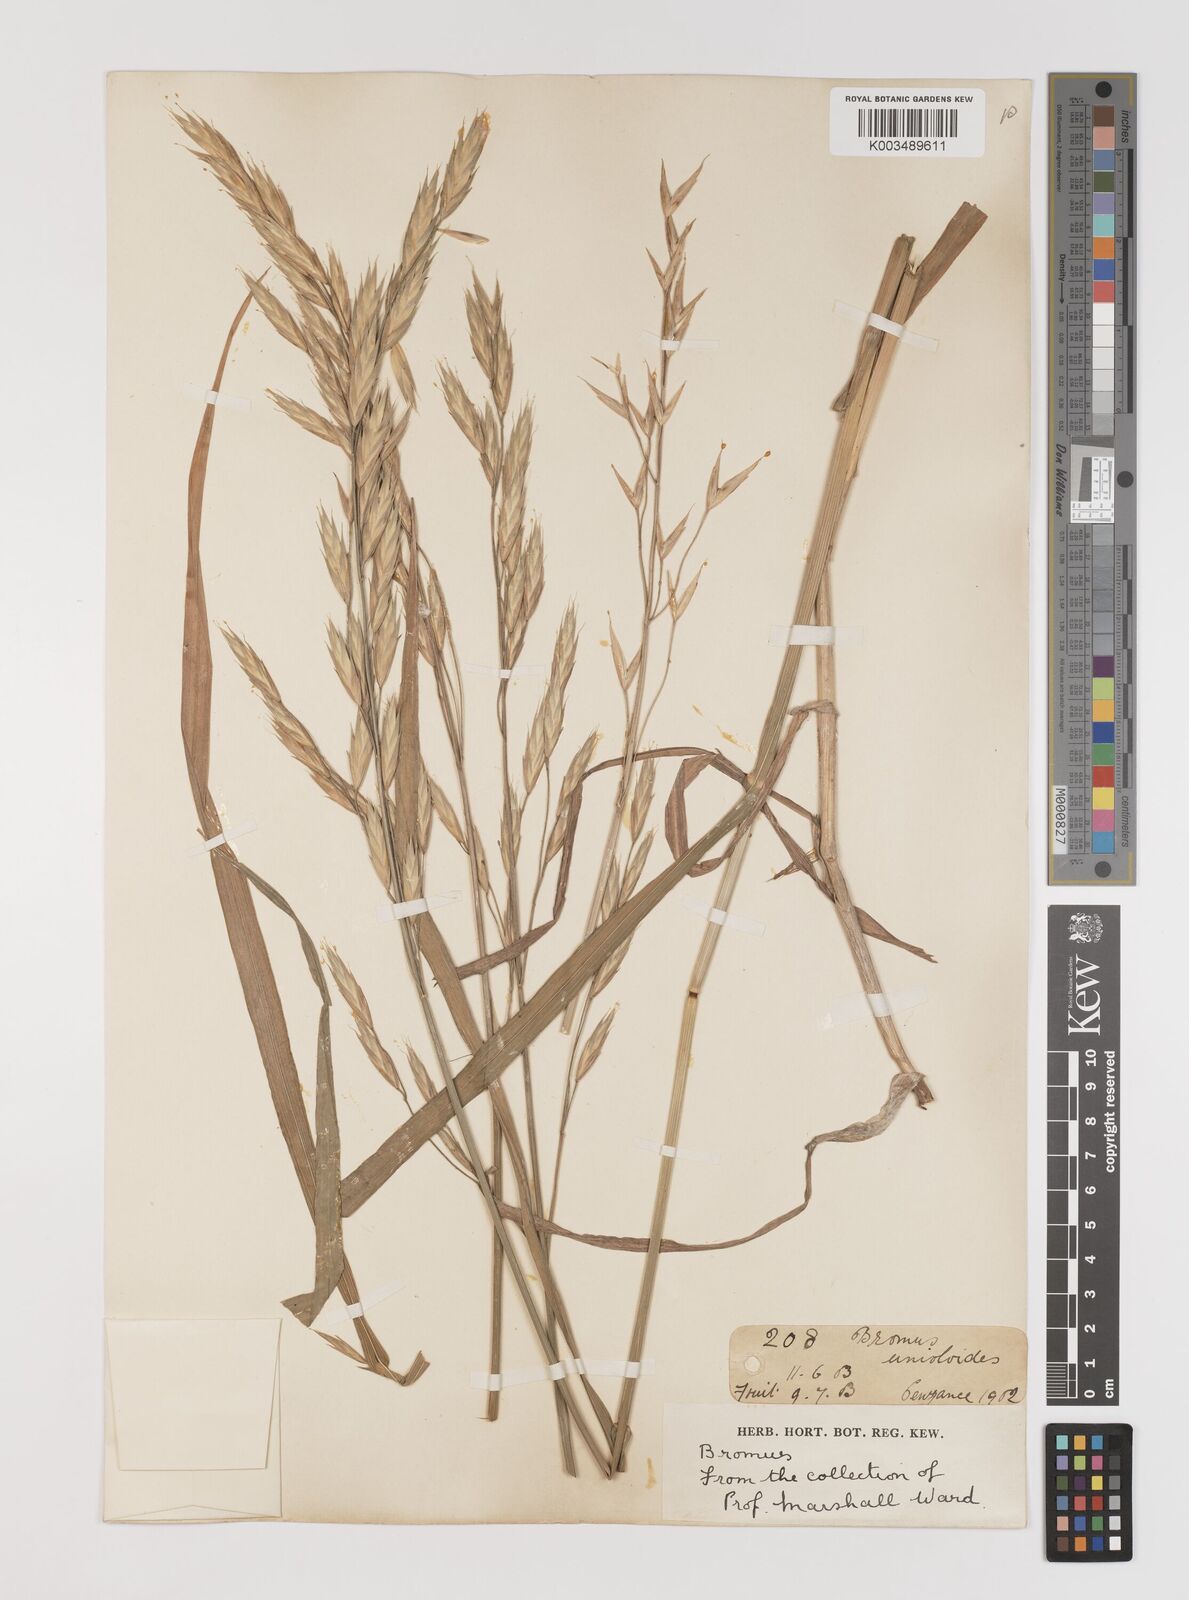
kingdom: Plantae
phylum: Tracheophyta
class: Liliopsida
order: Poales
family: Poaceae
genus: Bromus
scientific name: Bromus catharticus
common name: Rescuegrass
